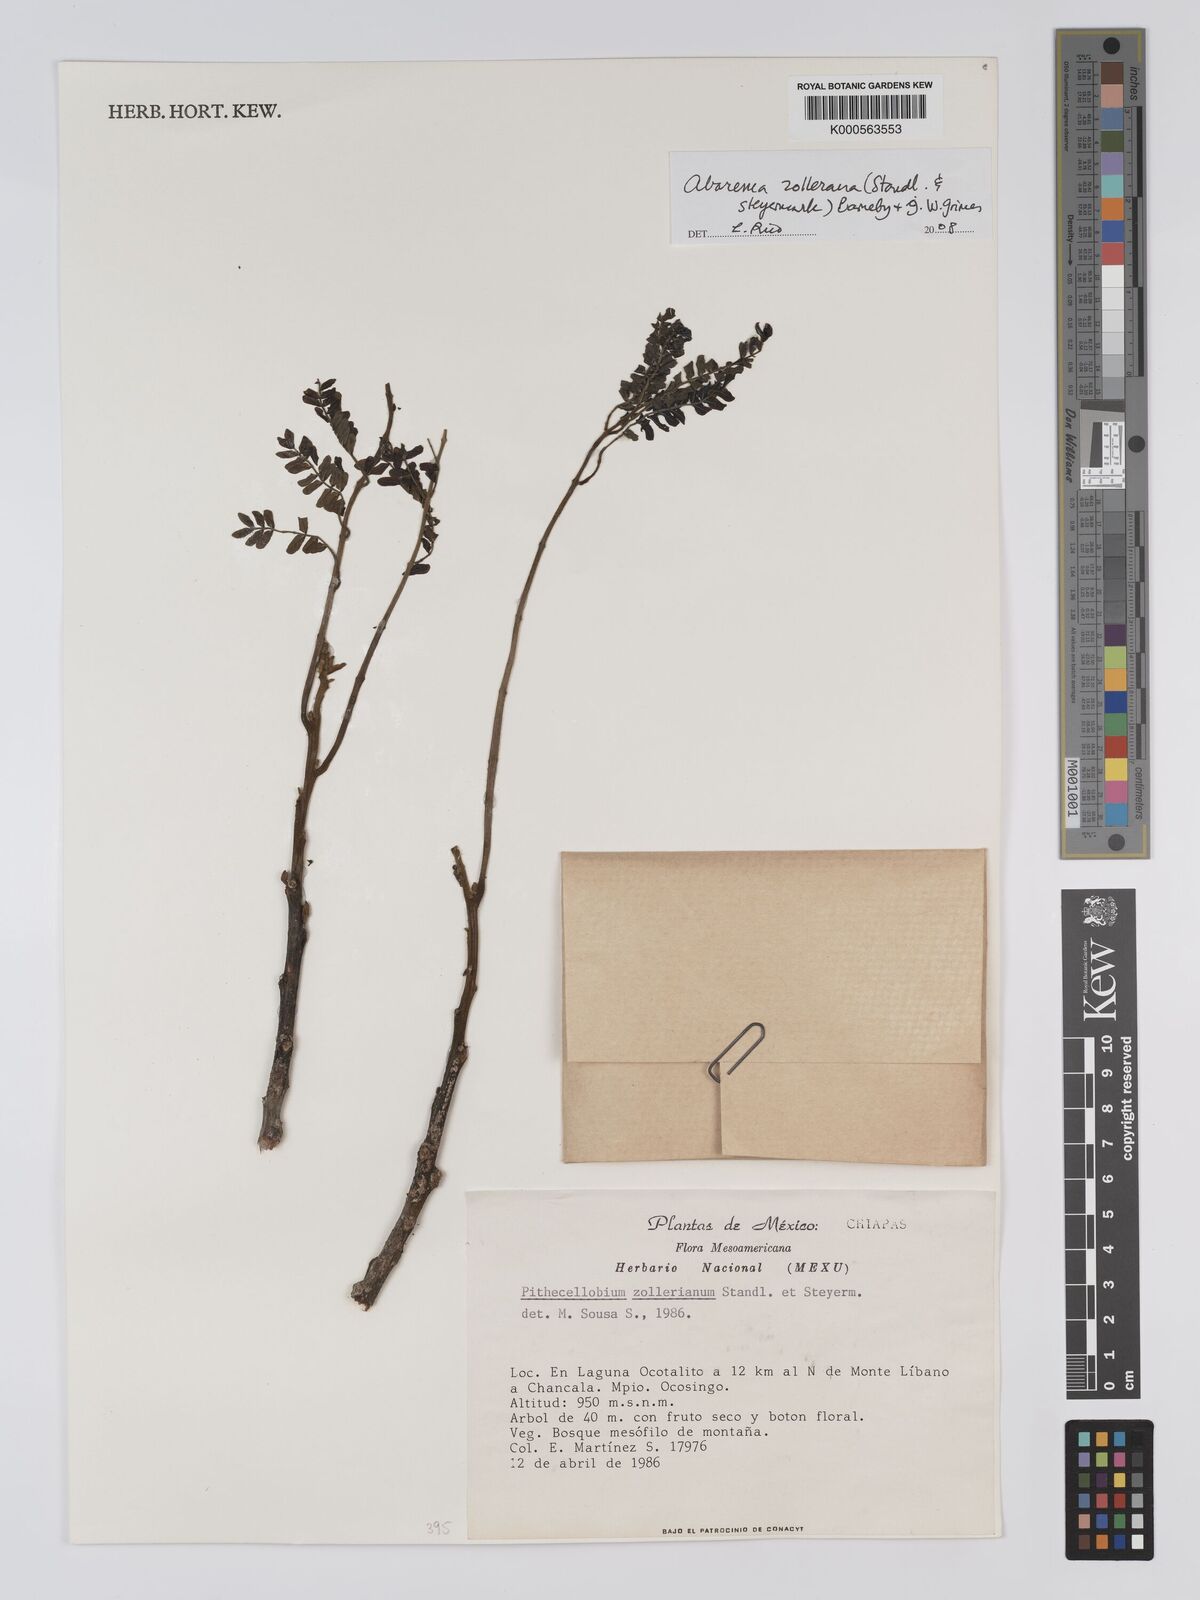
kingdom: Plantae
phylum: Tracheophyta
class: Magnoliopsida
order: Fabales
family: Fabaceae
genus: Abarema
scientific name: Abarema
